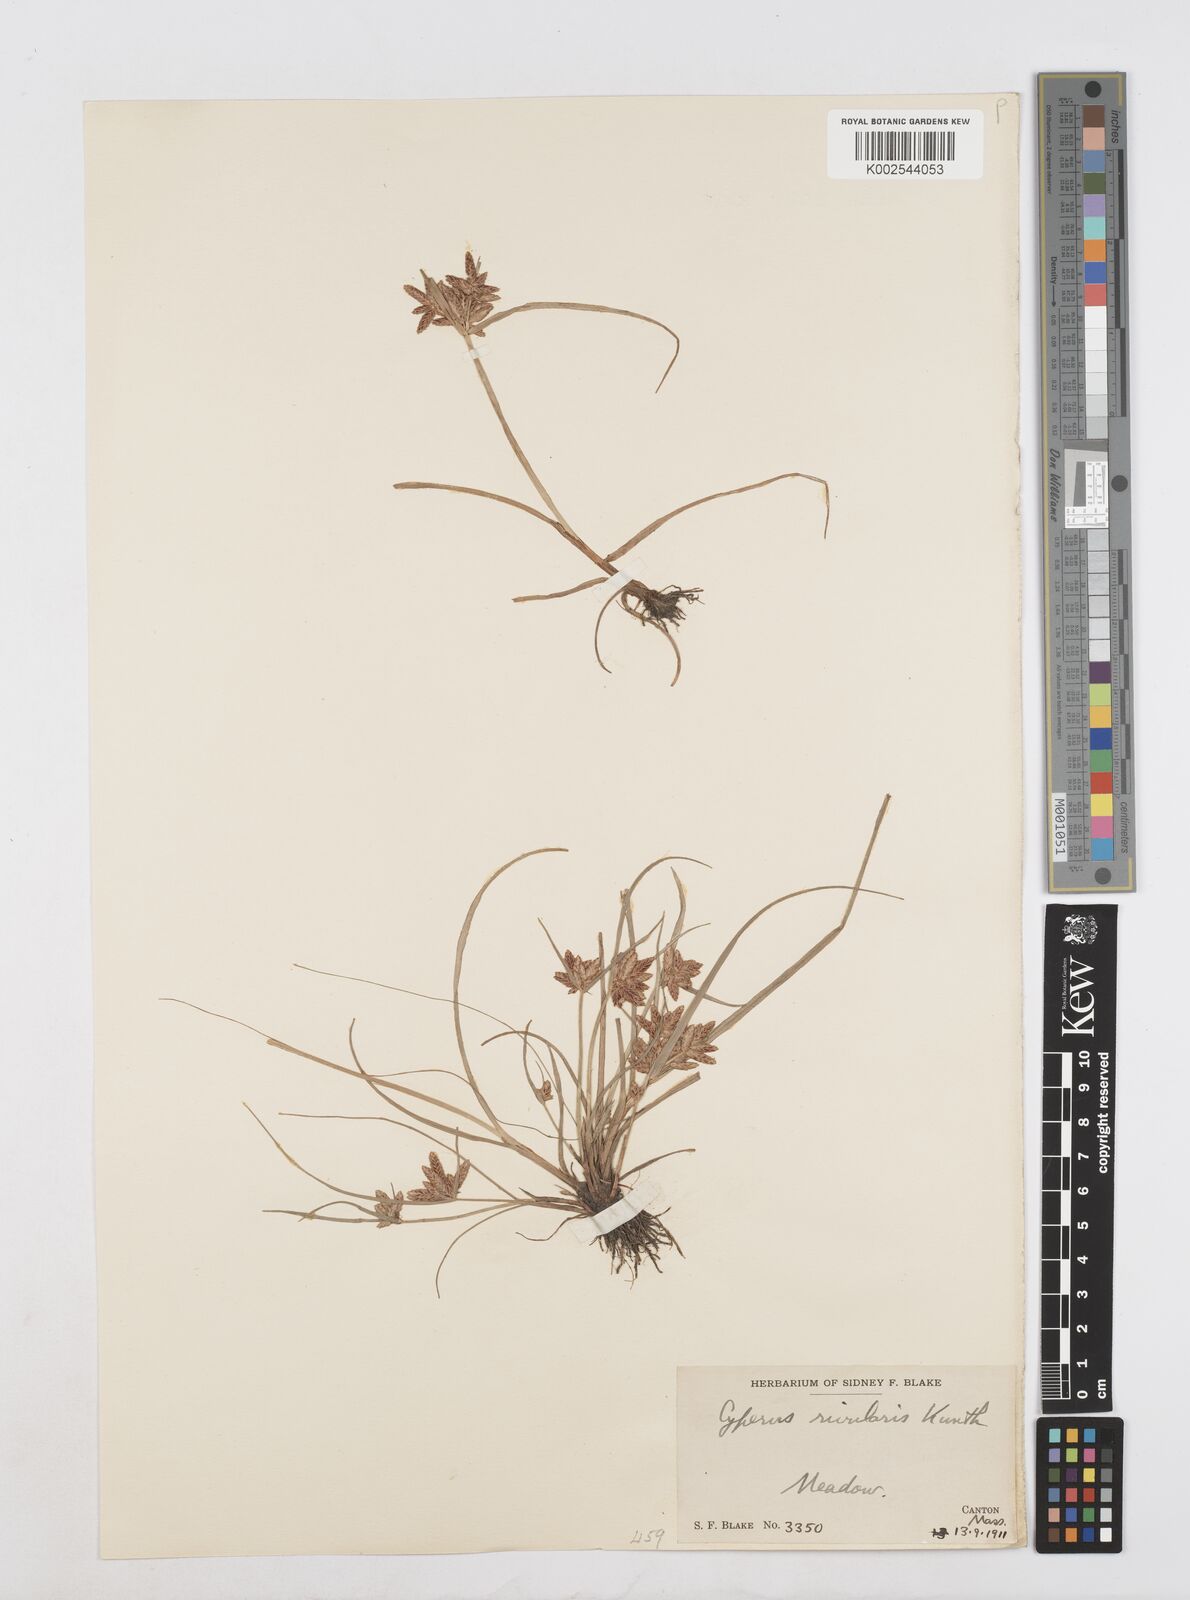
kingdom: Plantae
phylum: Tracheophyta
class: Liliopsida
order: Poales
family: Cyperaceae
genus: Cyperus
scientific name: Cyperus bipartitus
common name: Brook flatsedge
